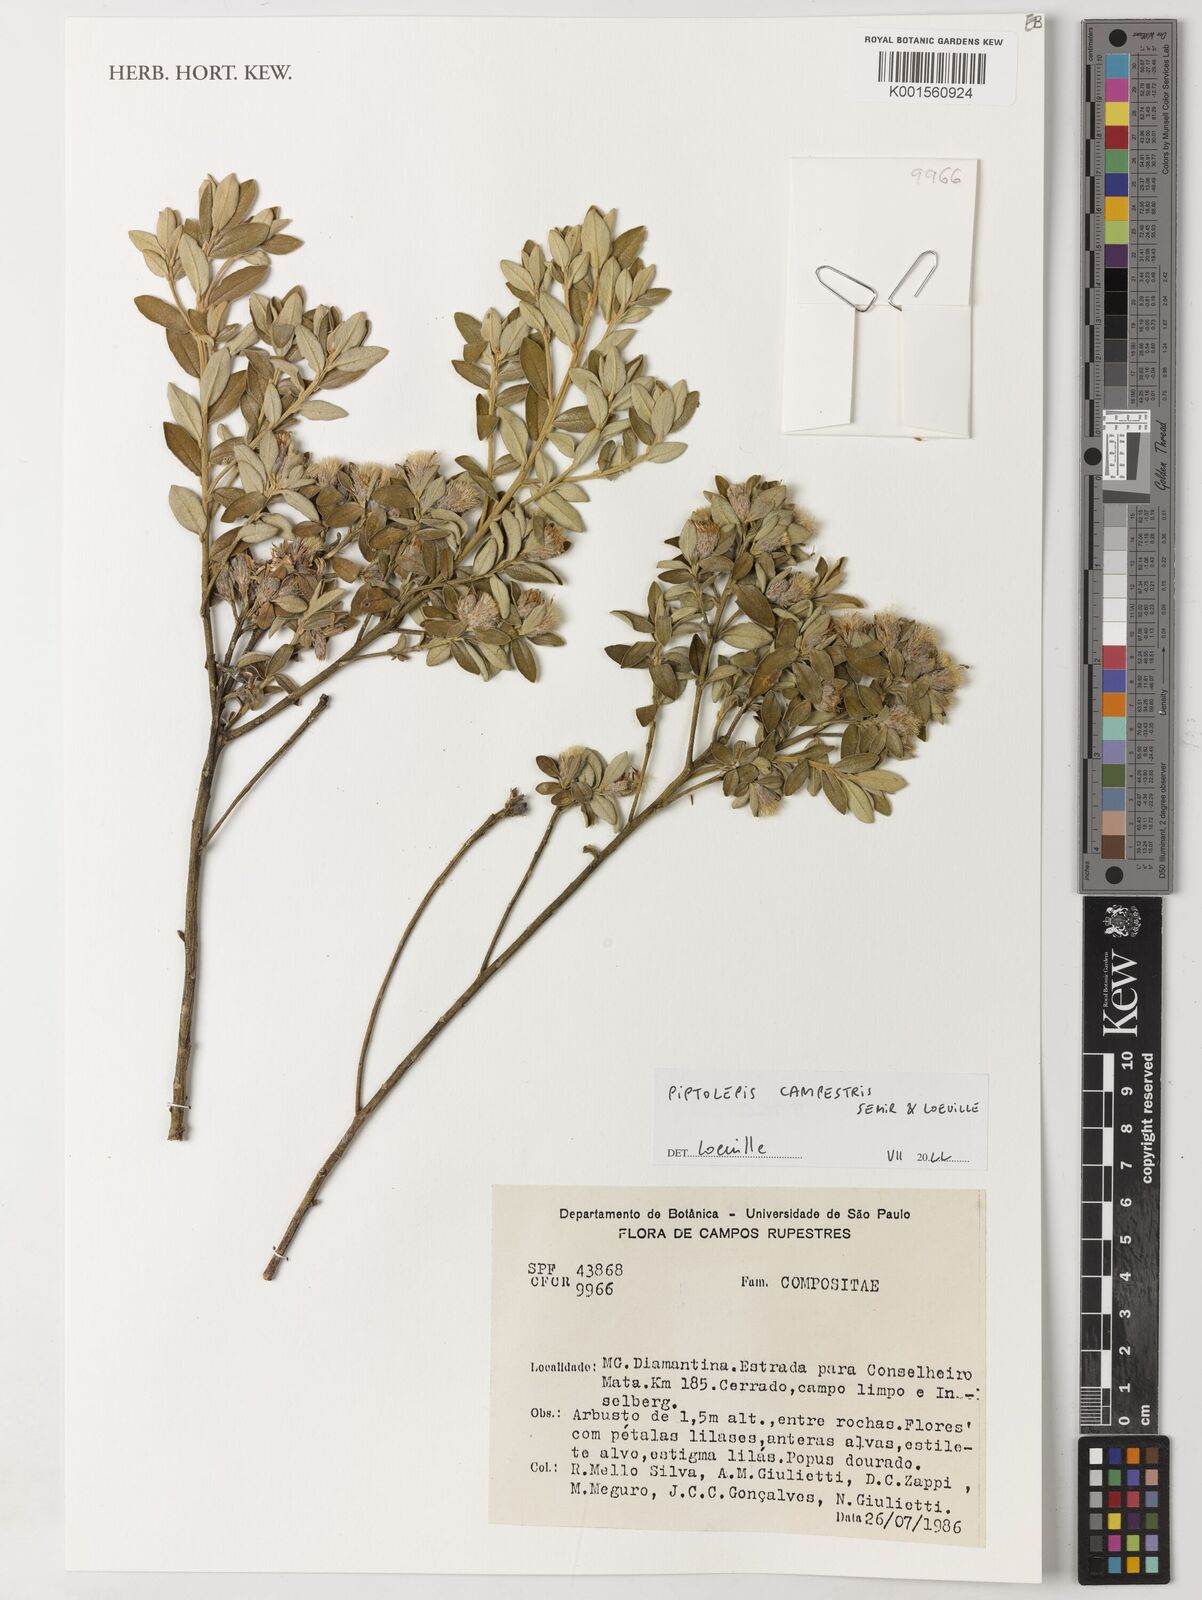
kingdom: Plantae
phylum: Tracheophyta
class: Magnoliopsida
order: Asterales
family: Asteraceae
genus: Piptolepis
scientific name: Piptolepis campestris
